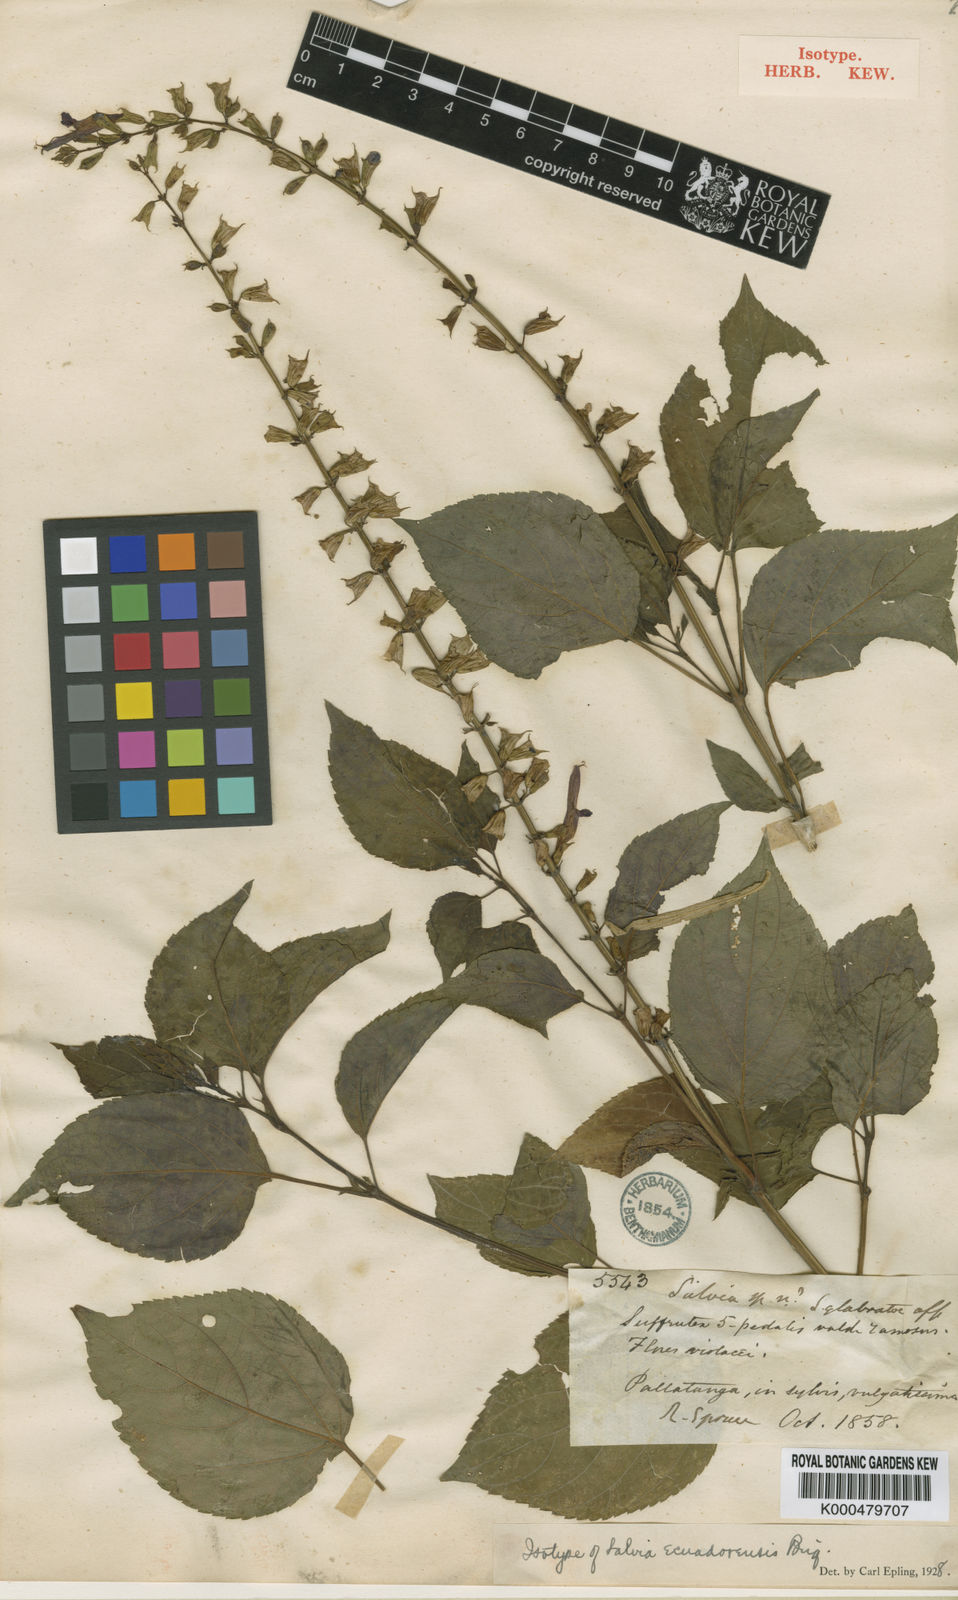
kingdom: Plantae
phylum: Tracheophyta
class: Magnoliopsida
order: Lamiales
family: Lamiaceae
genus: Salvia
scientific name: Salvia ecuadorensis
